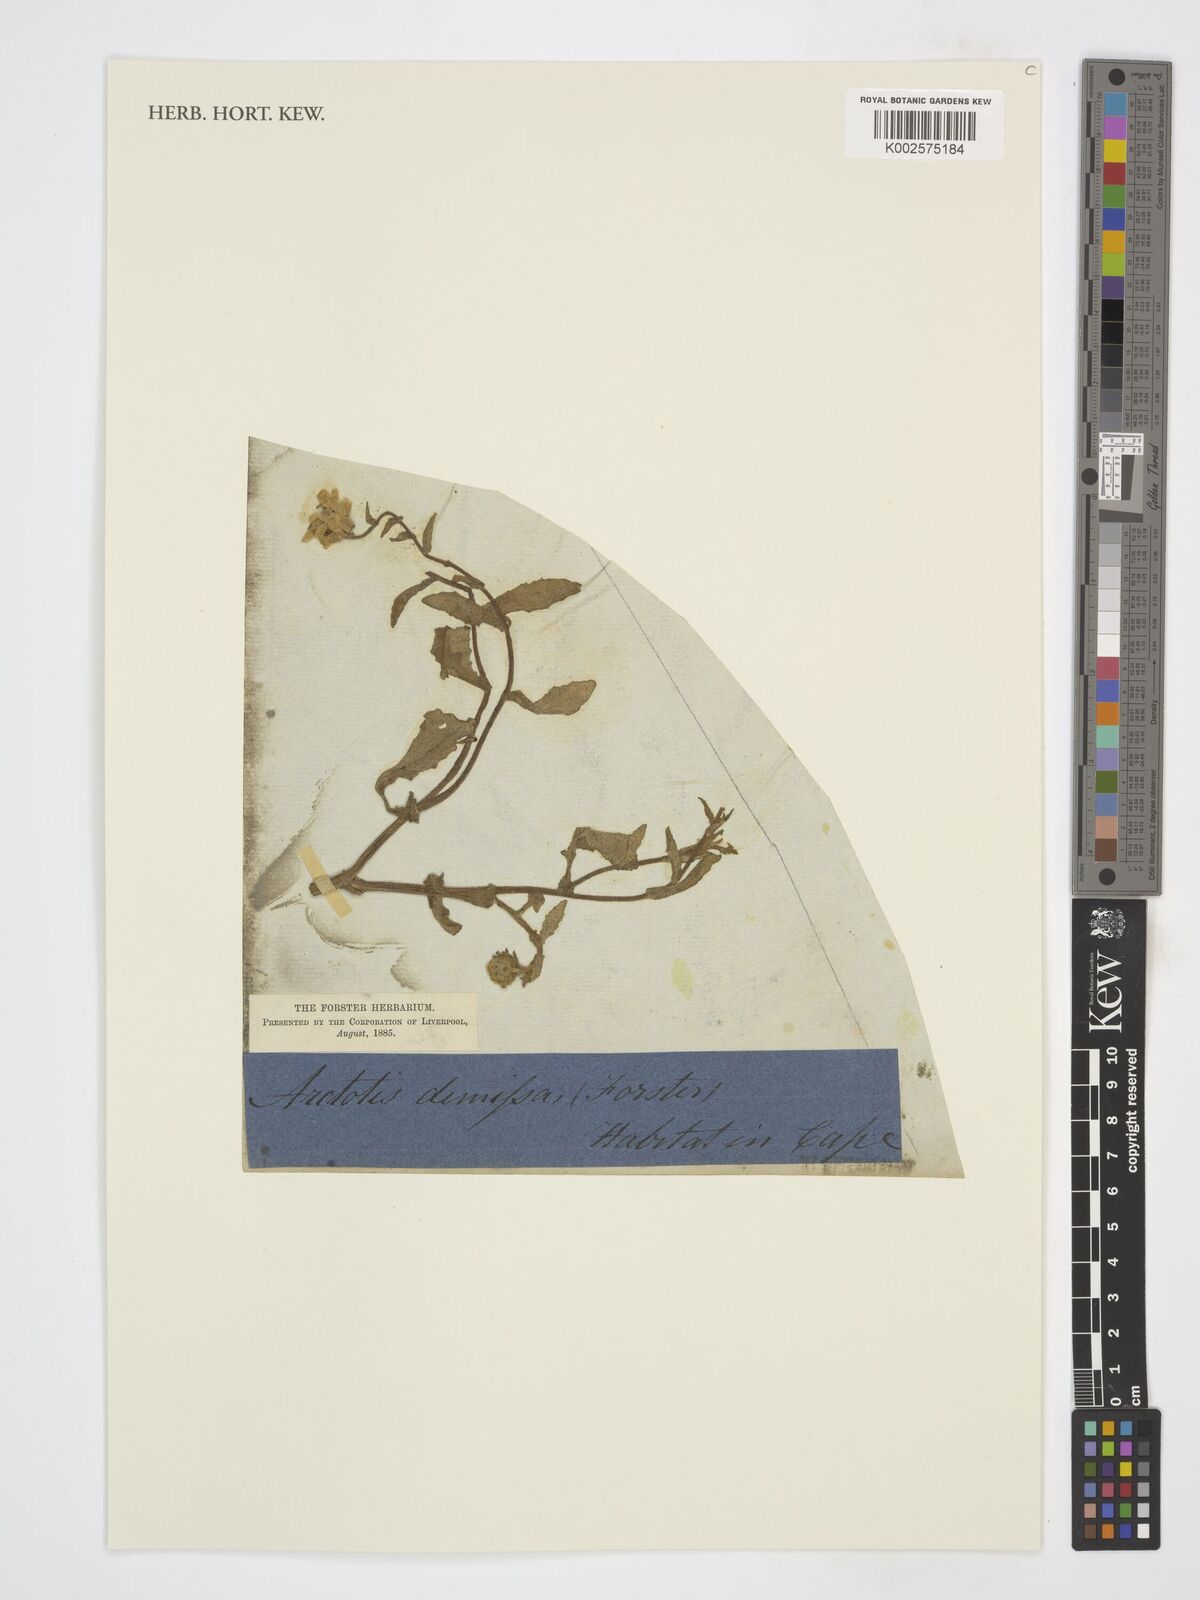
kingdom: Plantae
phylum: Tracheophyta
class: Magnoliopsida
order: Asterales
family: Asteraceae
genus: Arctotis
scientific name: Arctotis
